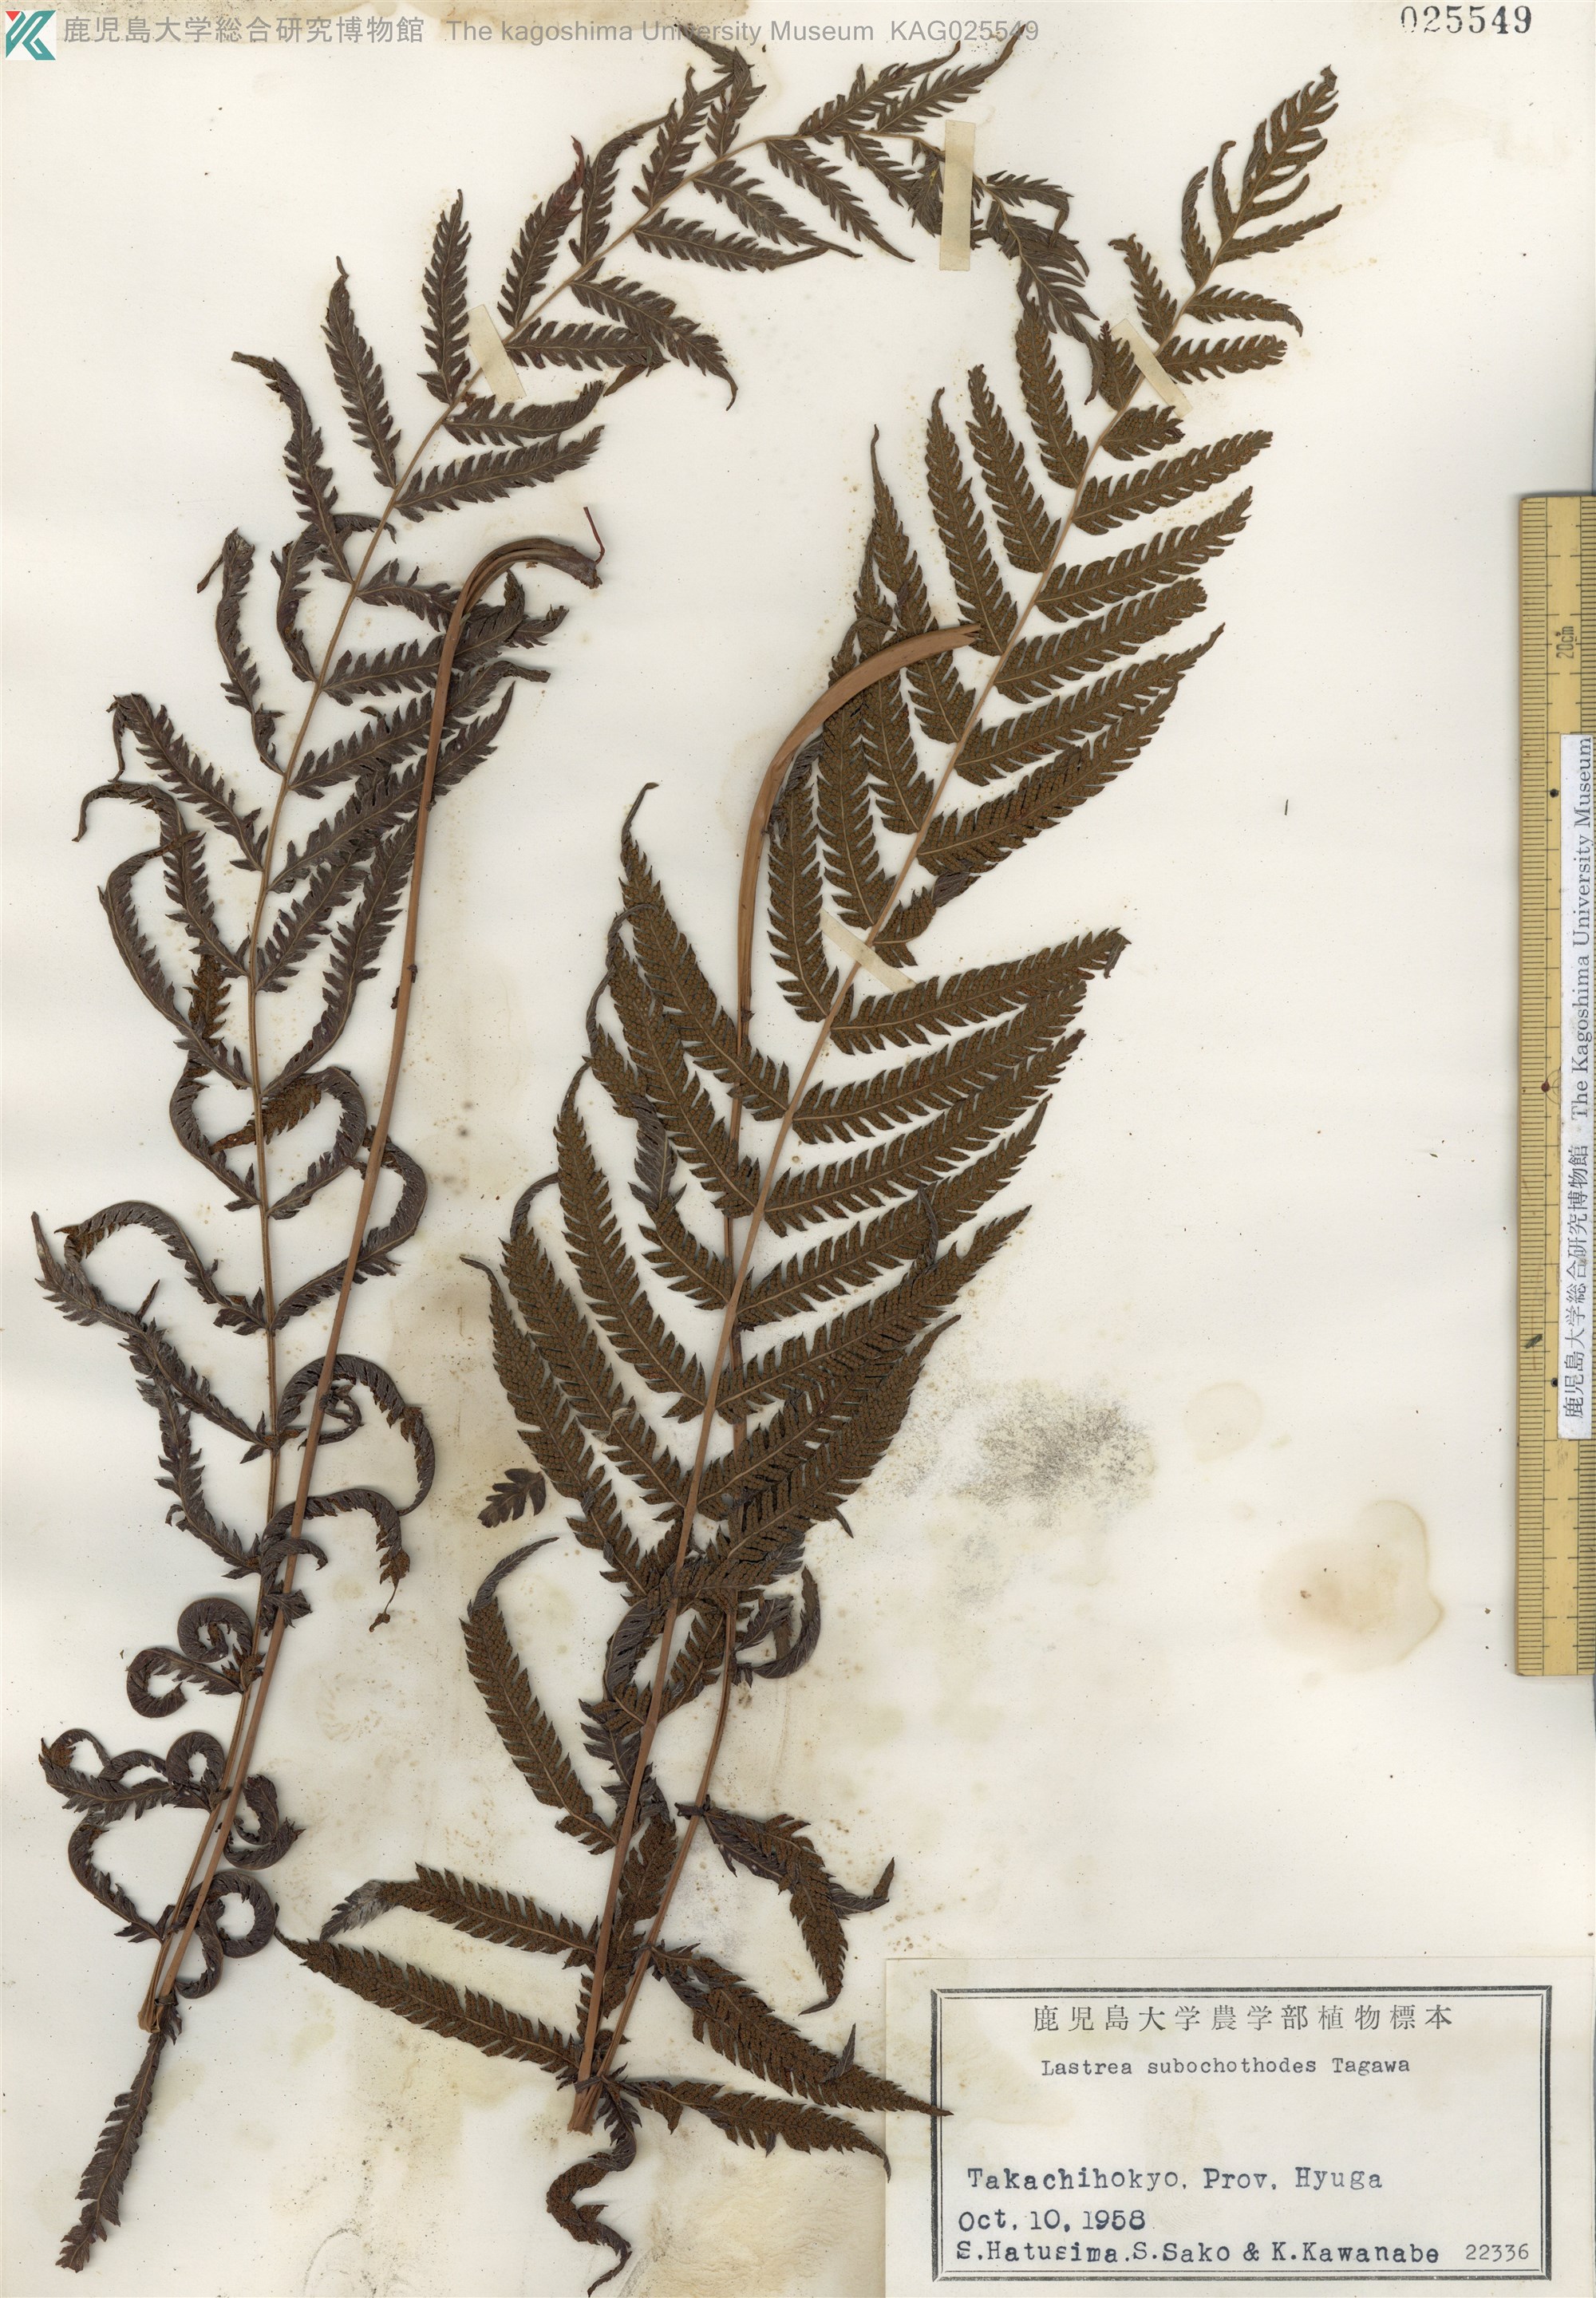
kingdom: Plantae
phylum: Tracheophyta
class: Polypodiopsida
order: Polypodiales
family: Thelypteridaceae
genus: Pseudocyclosorus
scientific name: Pseudocyclosorus esquirolii
